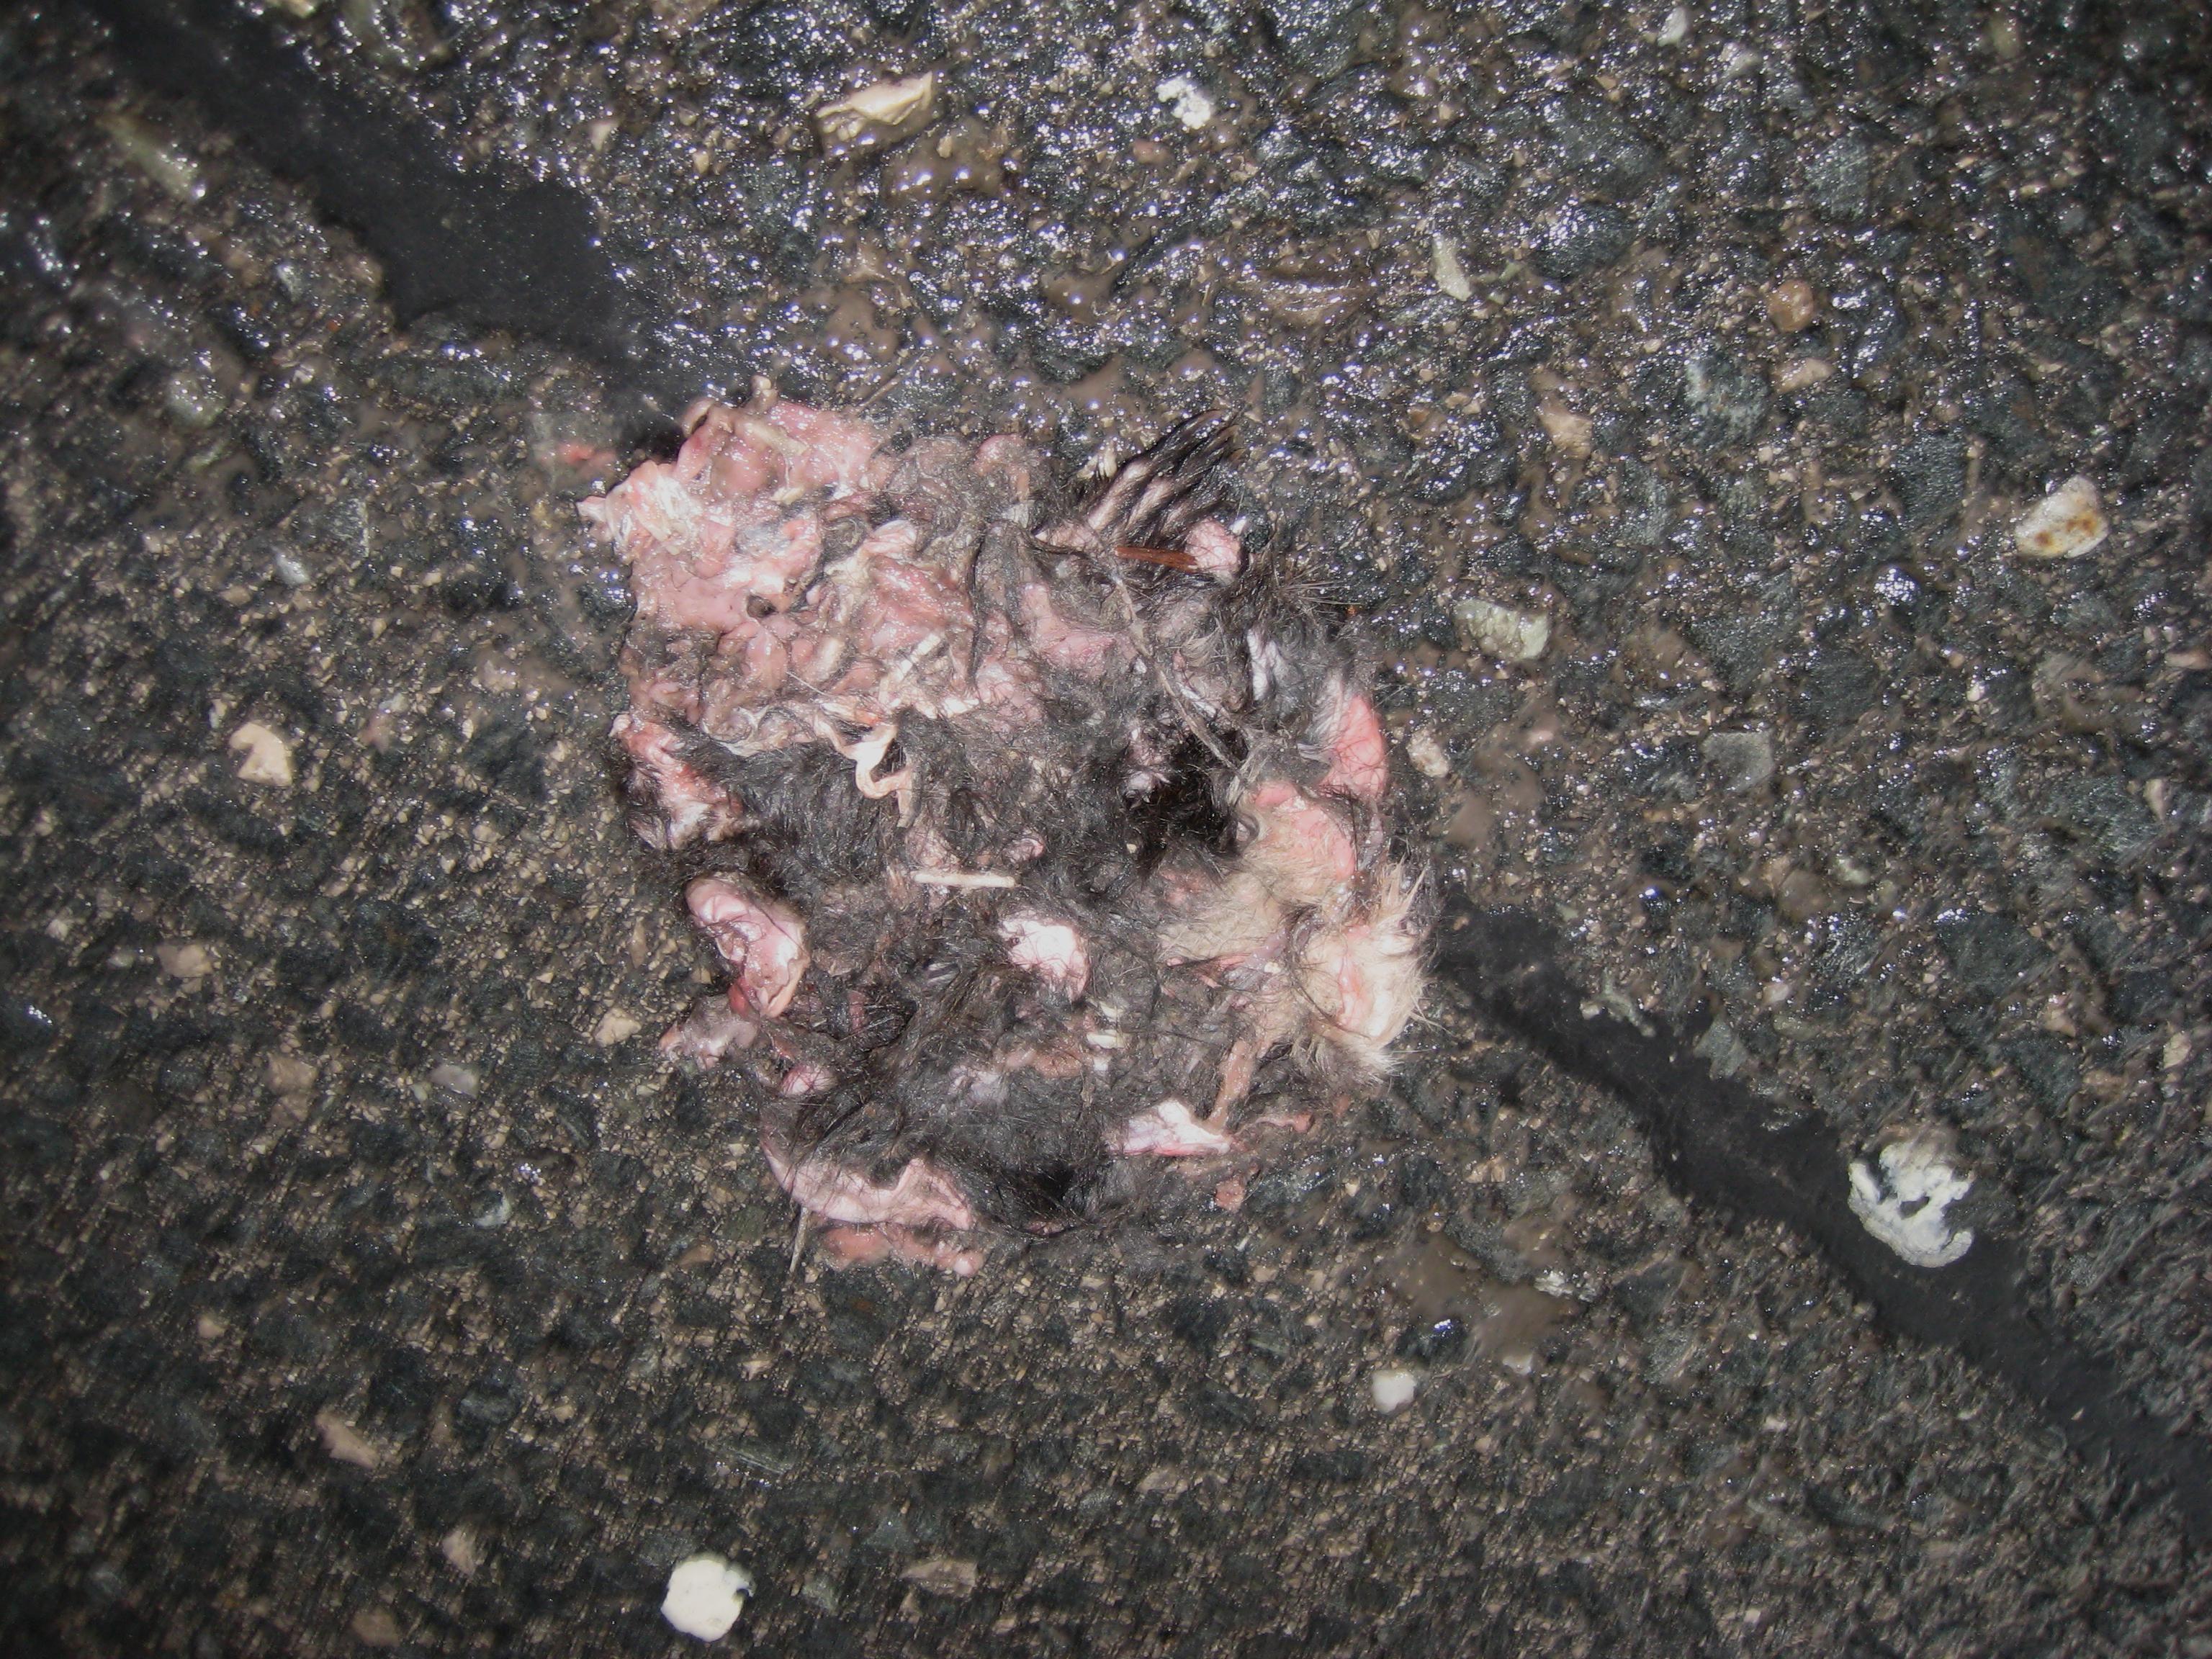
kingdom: Animalia
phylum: Chordata
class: Mammalia
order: Rodentia
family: Sciuridae
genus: Sciurus
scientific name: Sciurus vulgaris
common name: Eurasian red squirrel
